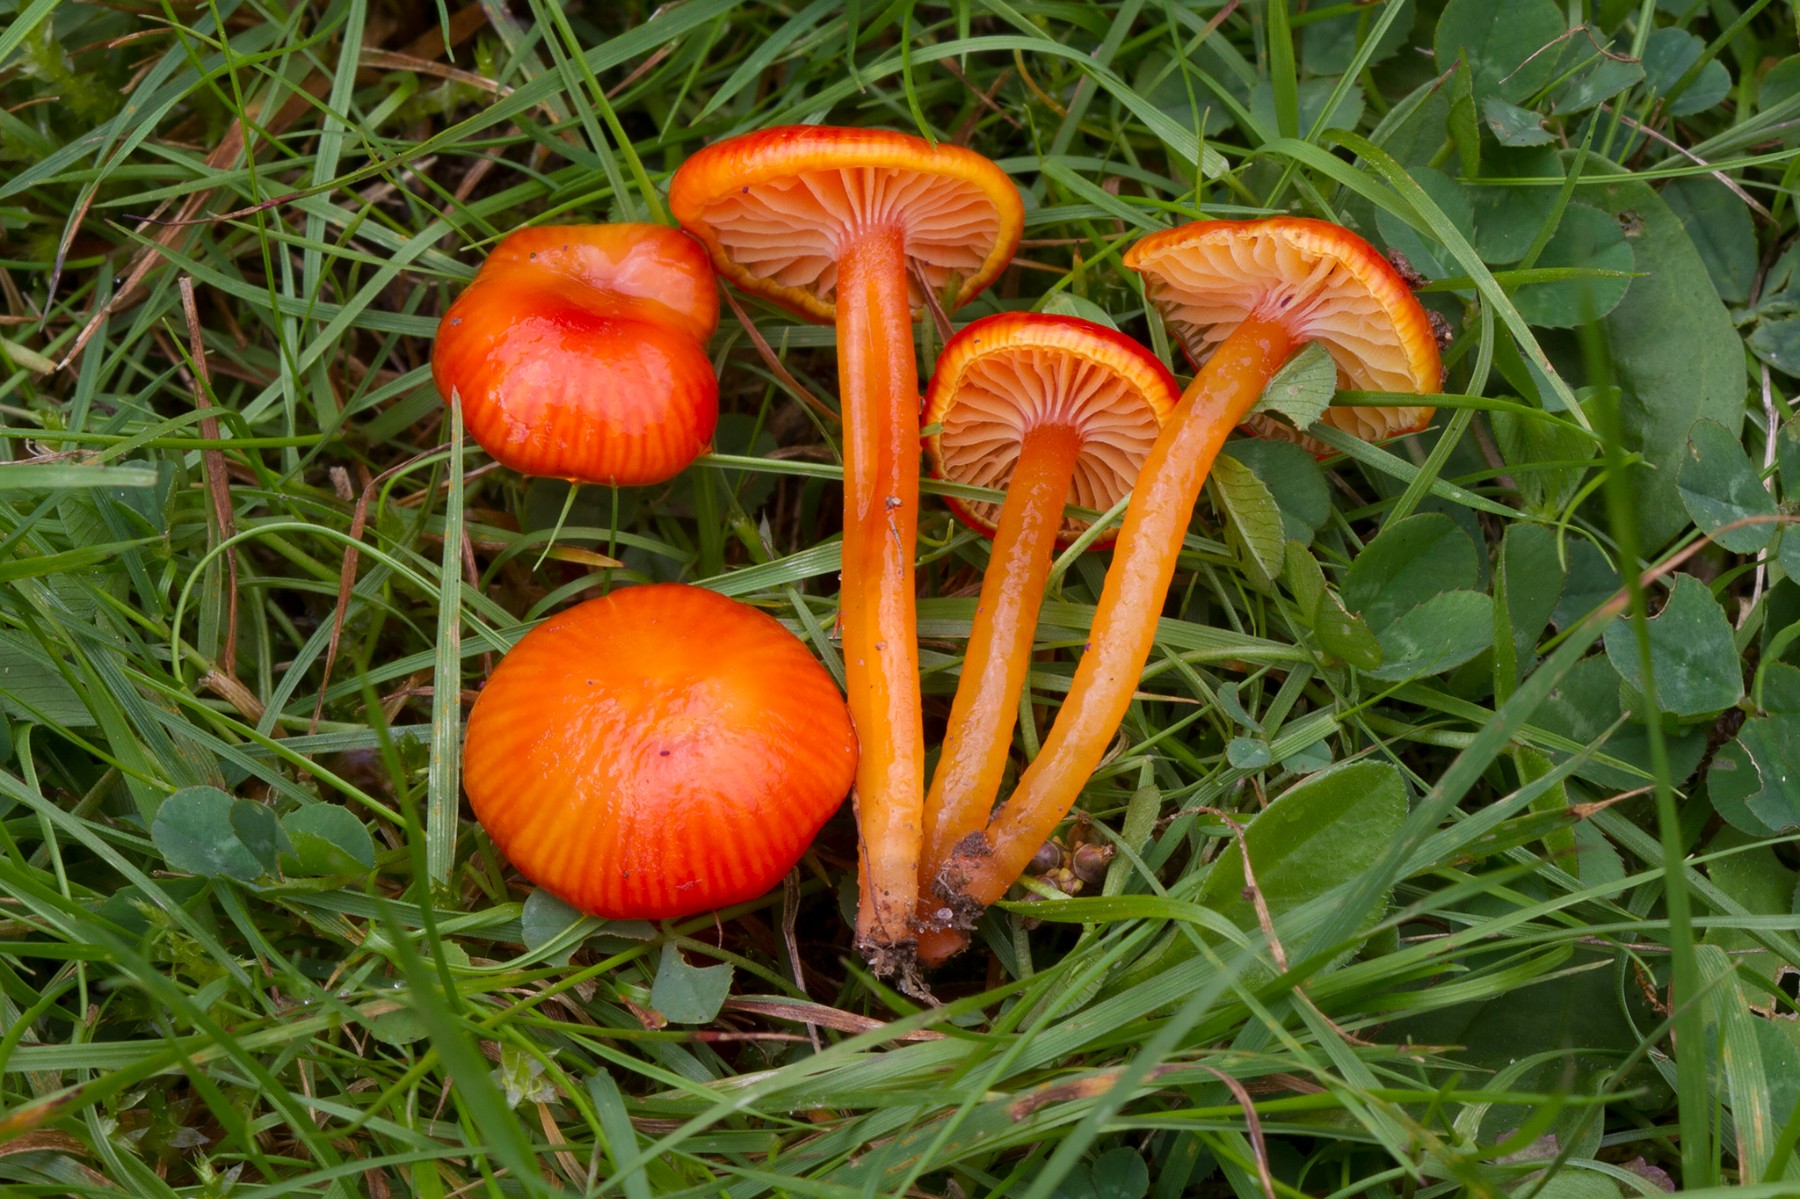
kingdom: Fungi
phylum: Basidiomycota
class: Agaricomycetes
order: Agaricales
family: Hygrophoraceae
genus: Hygrocybe
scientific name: Hygrocybe glutinipes
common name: slimstokket vokshat
